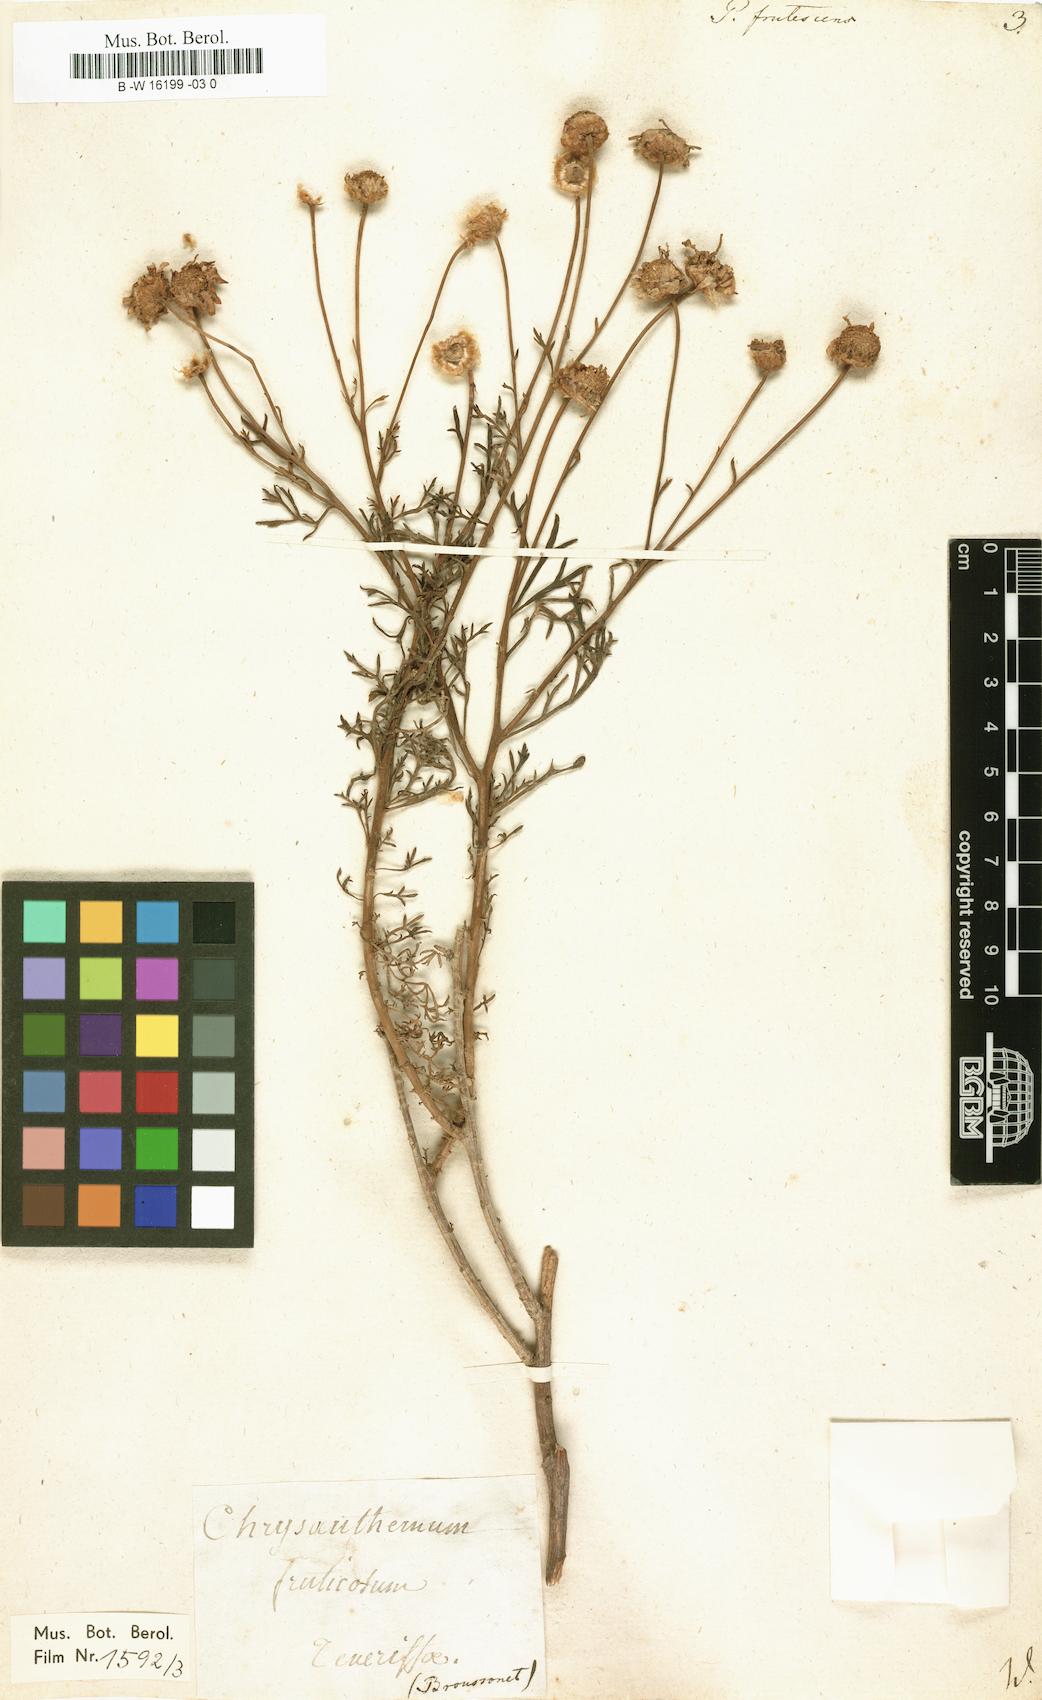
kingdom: Plantae
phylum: Tracheophyta
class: Magnoliopsida
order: Asterales
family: Asteraceae
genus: Argyranthemum
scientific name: Argyranthemum frutescens
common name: Paris daisy
